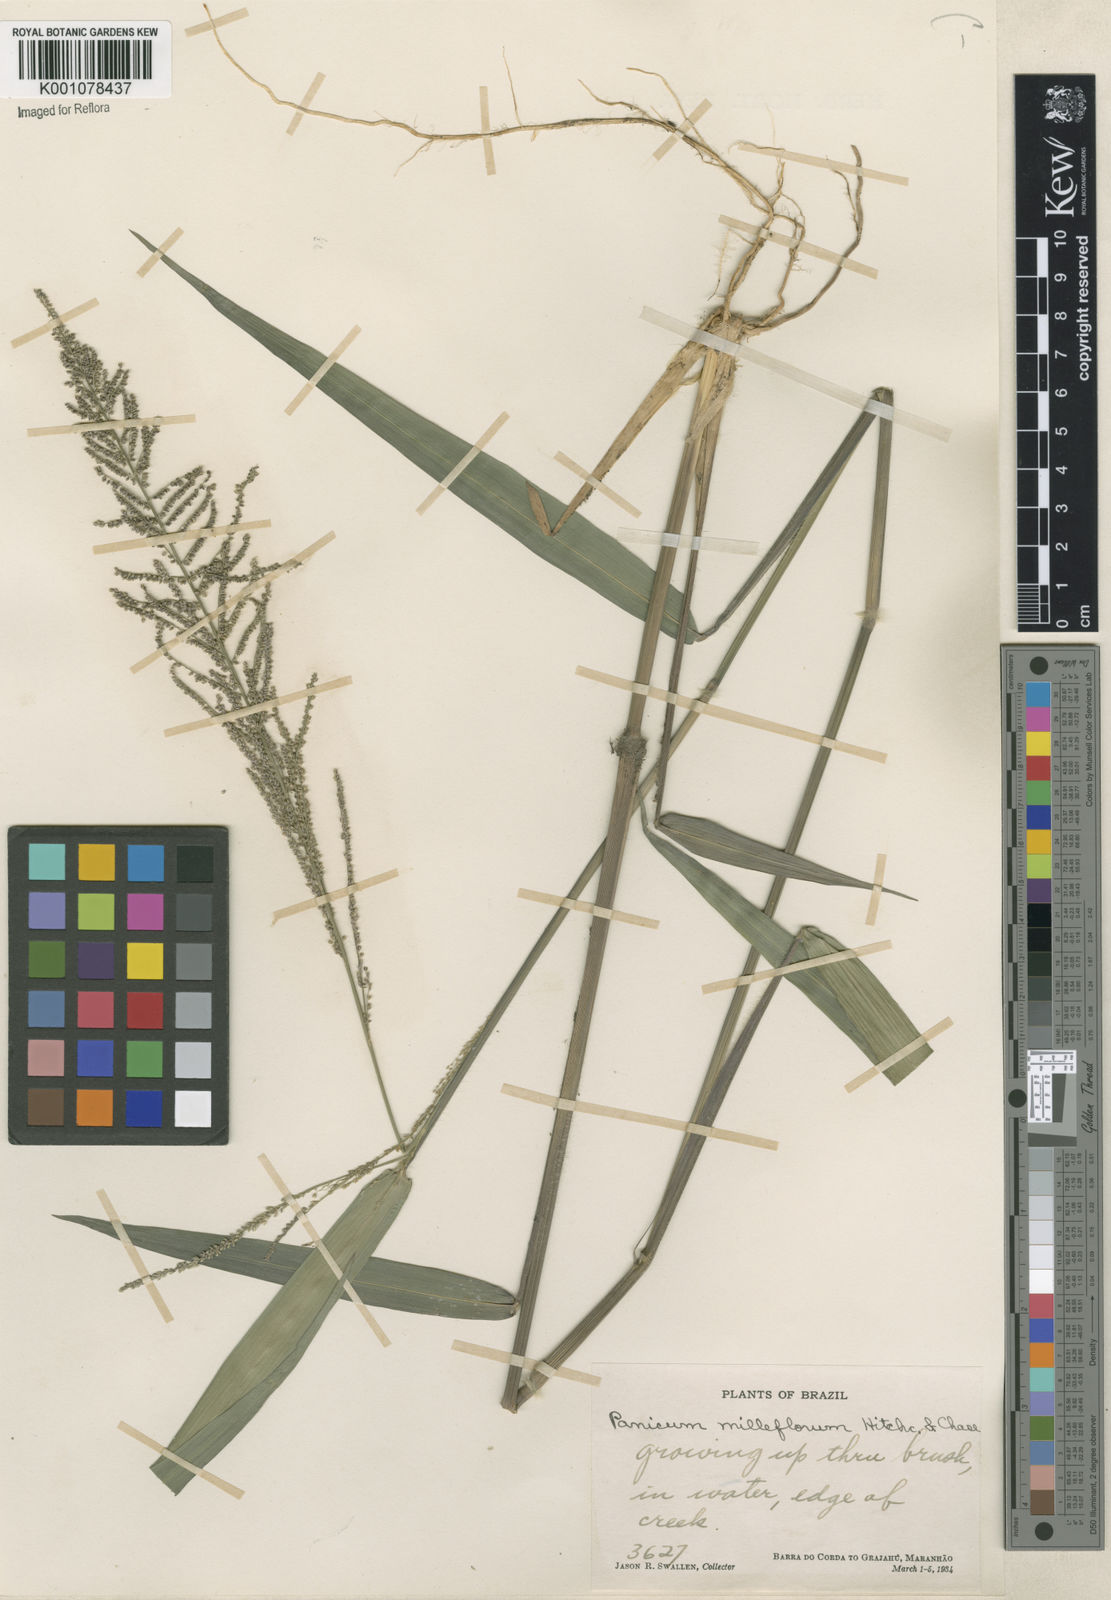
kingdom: Plantae
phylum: Tracheophyta
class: Liliopsida
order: Poales
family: Poaceae
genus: Rugoloa
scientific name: Rugoloa pilosa
